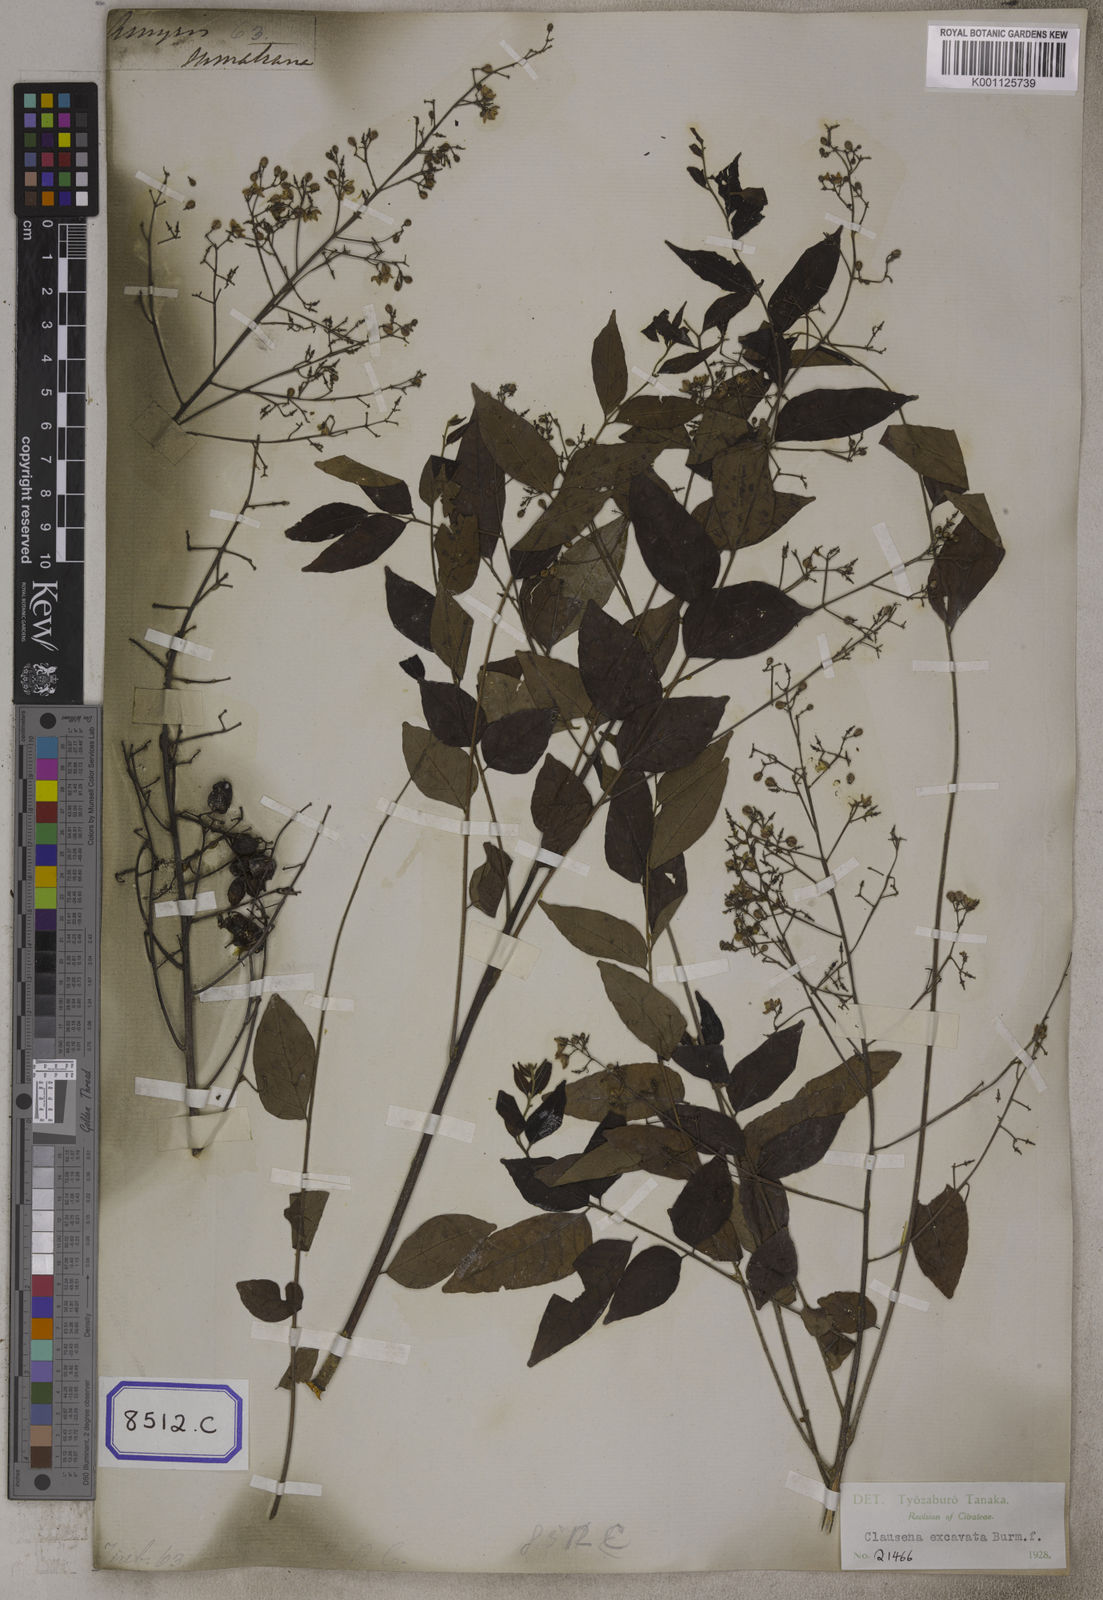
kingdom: Plantae
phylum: Tracheophyta
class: Magnoliopsida
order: Sapindales
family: Rutaceae
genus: Clausena
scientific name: Clausena
